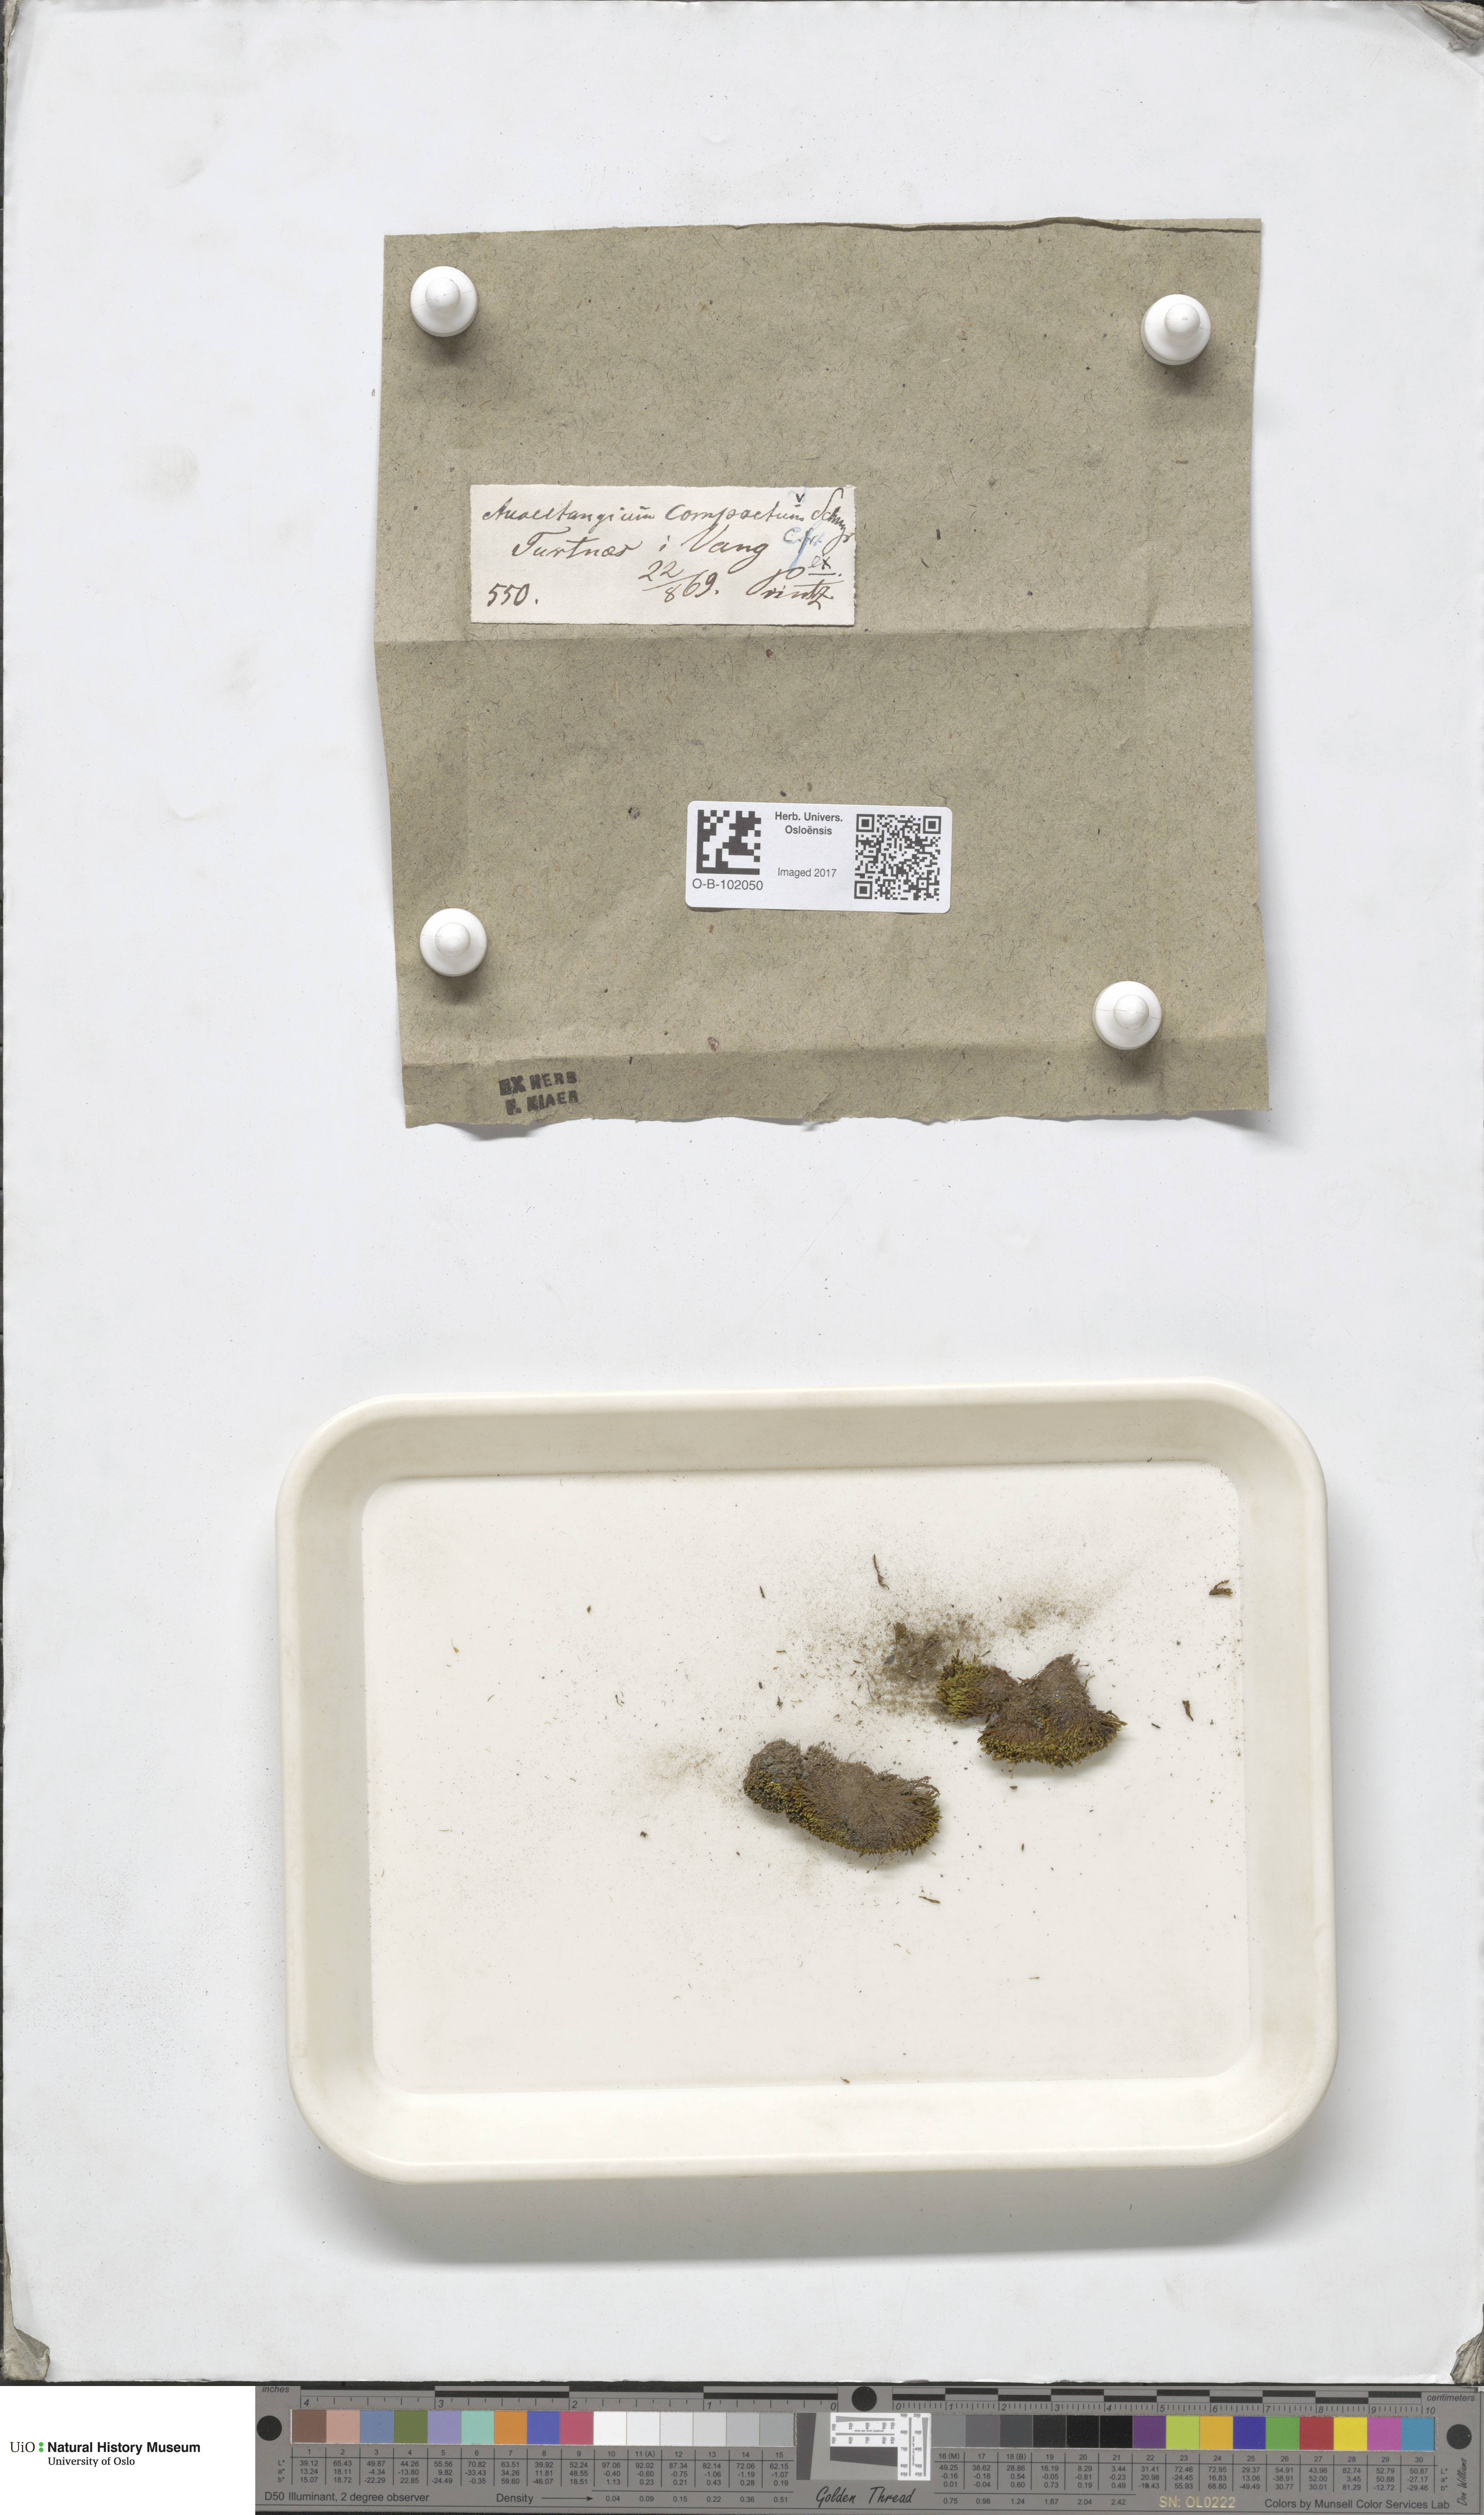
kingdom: Plantae
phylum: Bryophyta
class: Bryopsida
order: Pottiales
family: Pottiaceae
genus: Anoectangium
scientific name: Anoectangium aestivum
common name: Summer-moss
